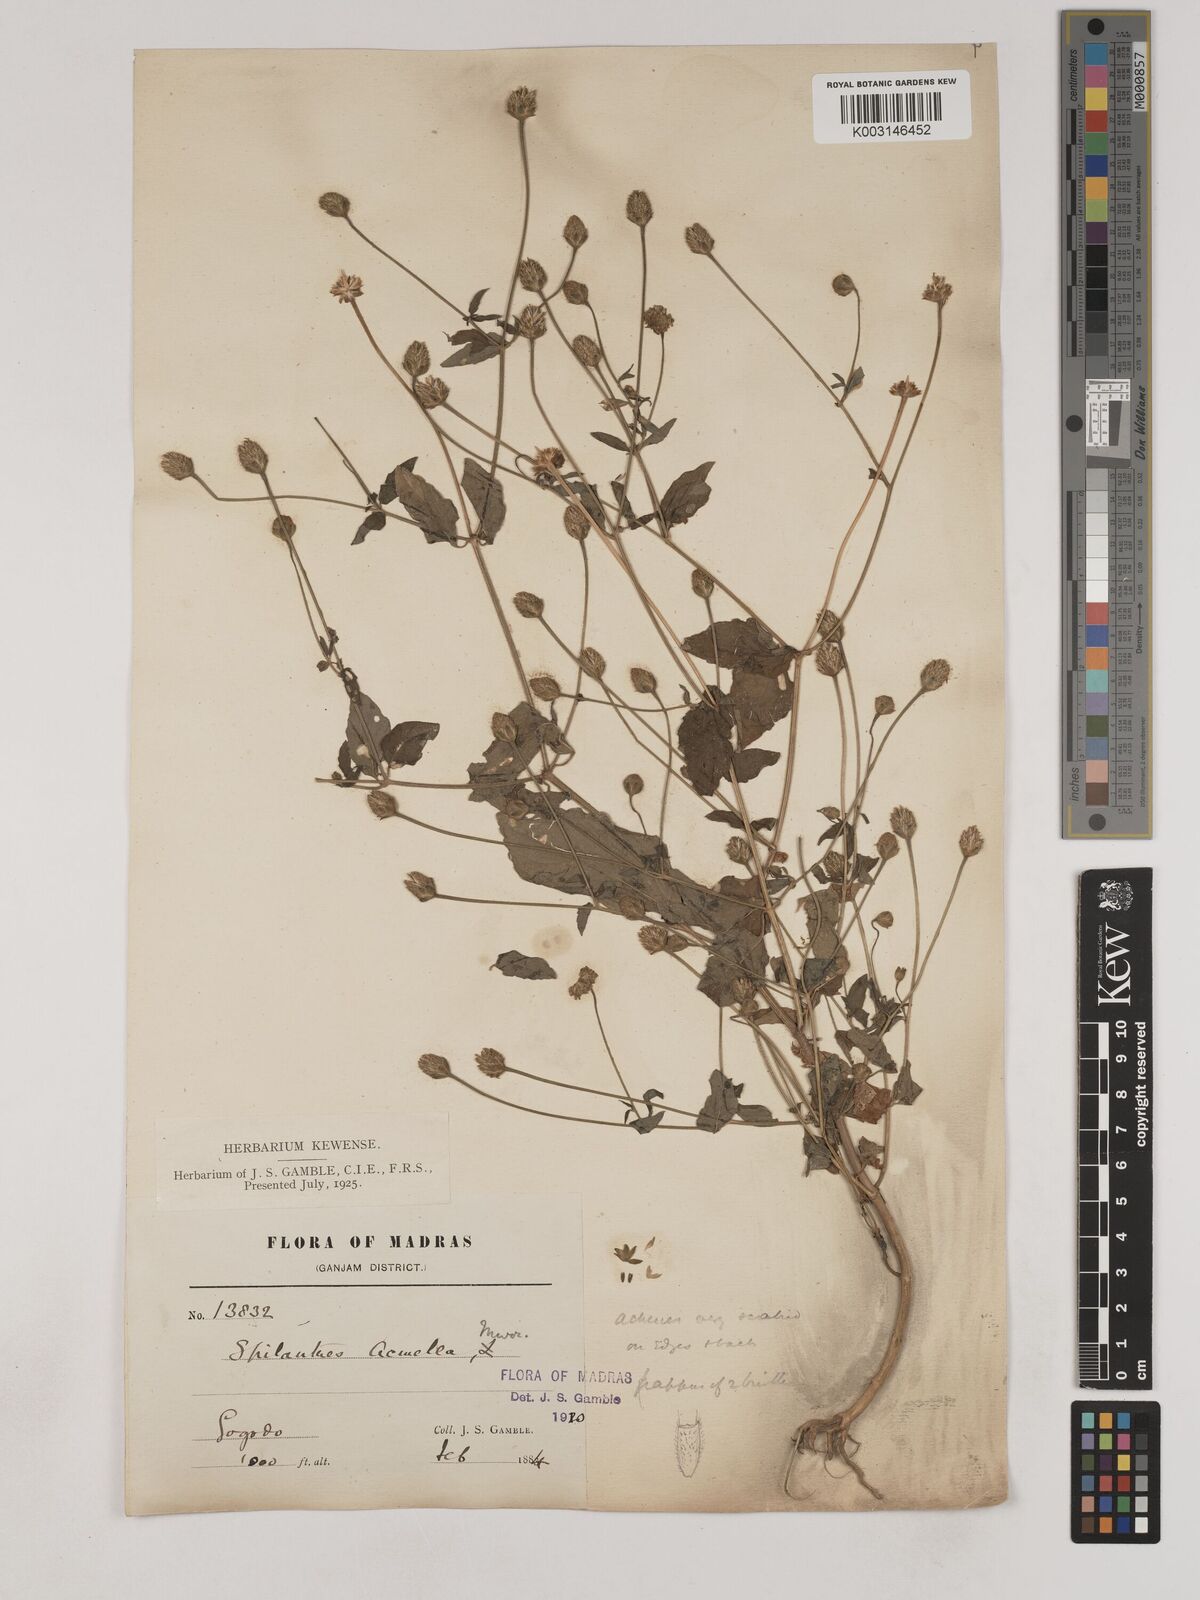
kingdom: Plantae
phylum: Tracheophyta
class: Magnoliopsida
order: Asterales
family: Asteraceae
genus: Acmella
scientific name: Acmella paniculata
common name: Panicled spot flower
